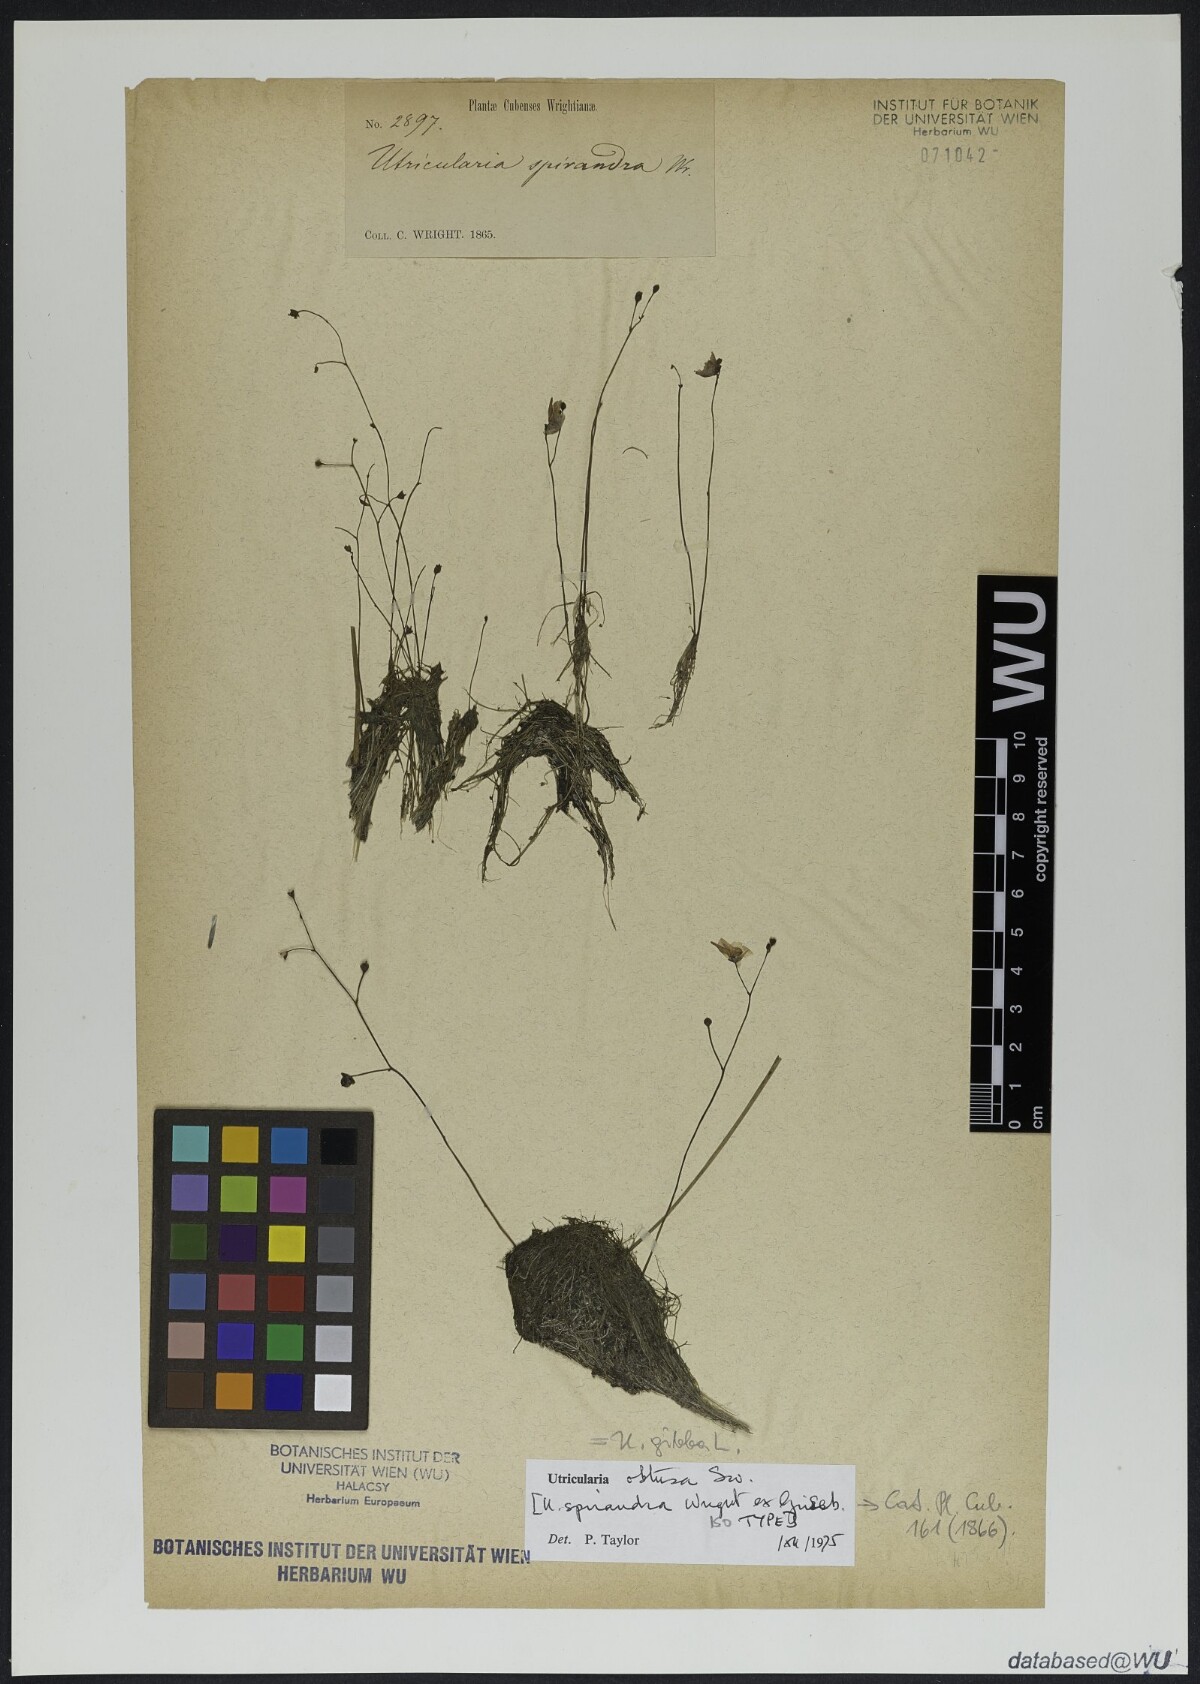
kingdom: Plantae
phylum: Tracheophyta
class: Magnoliopsida
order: Lamiales
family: Lentibulariaceae
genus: Utricularia
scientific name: Utricularia gibba
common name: Humped bladderwort
